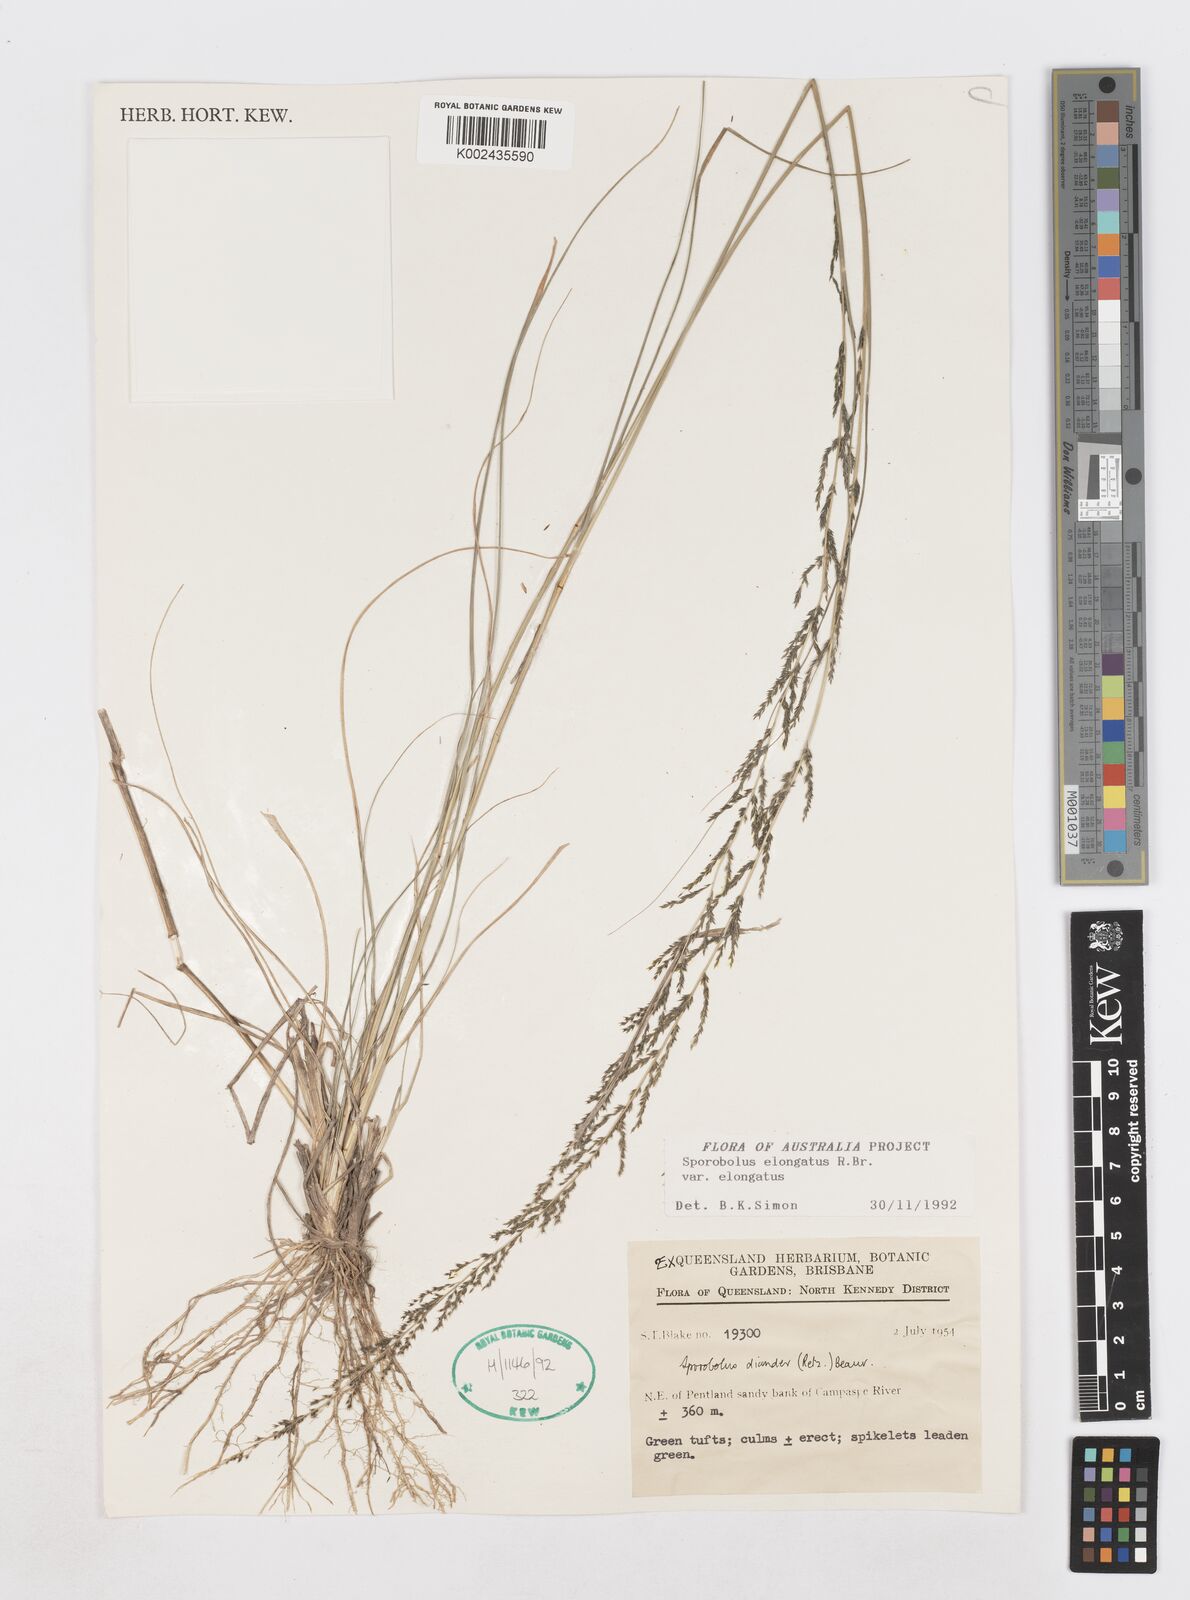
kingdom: Plantae
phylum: Tracheophyta
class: Liliopsida
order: Poales
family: Poaceae
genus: Sporobolus
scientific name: Sporobolus elongatus
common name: Rat tail grass
